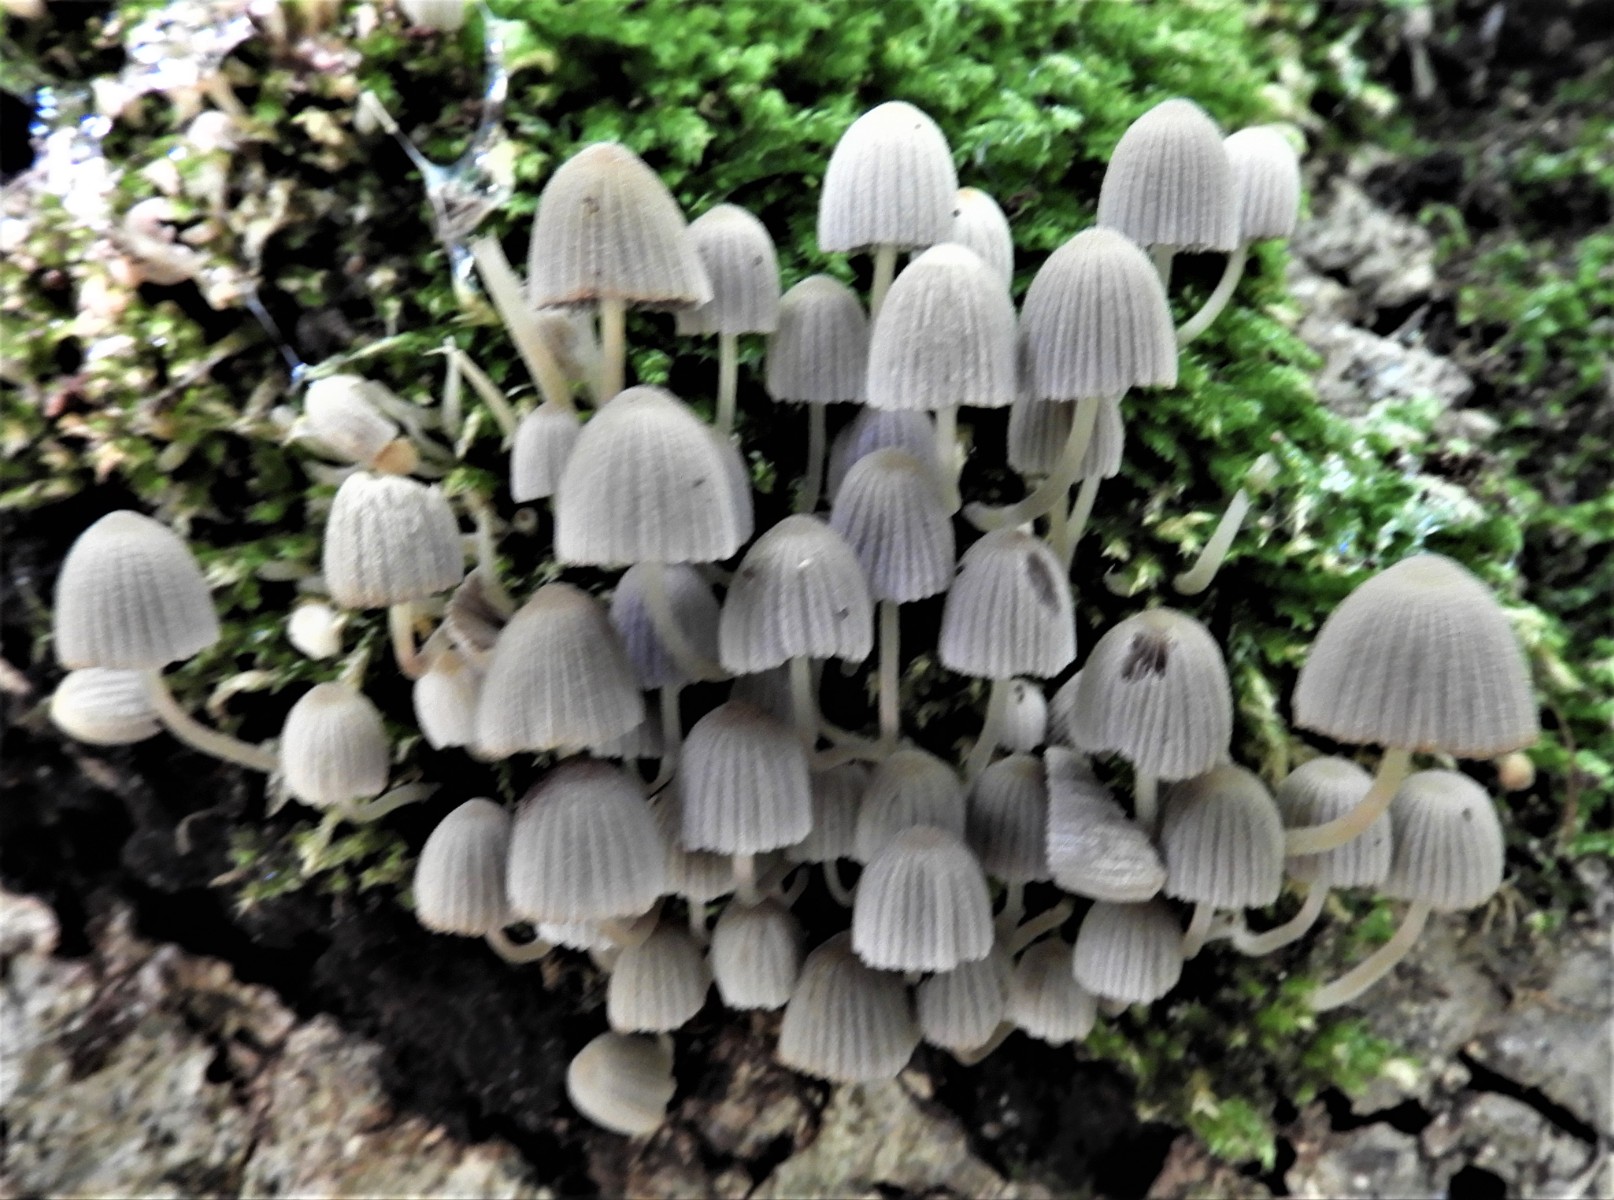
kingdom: Fungi
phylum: Basidiomycota
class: Agaricomycetes
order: Agaricales
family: Psathyrellaceae
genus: Coprinellus
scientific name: Coprinellus disseminatus
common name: bredsået blækhat
